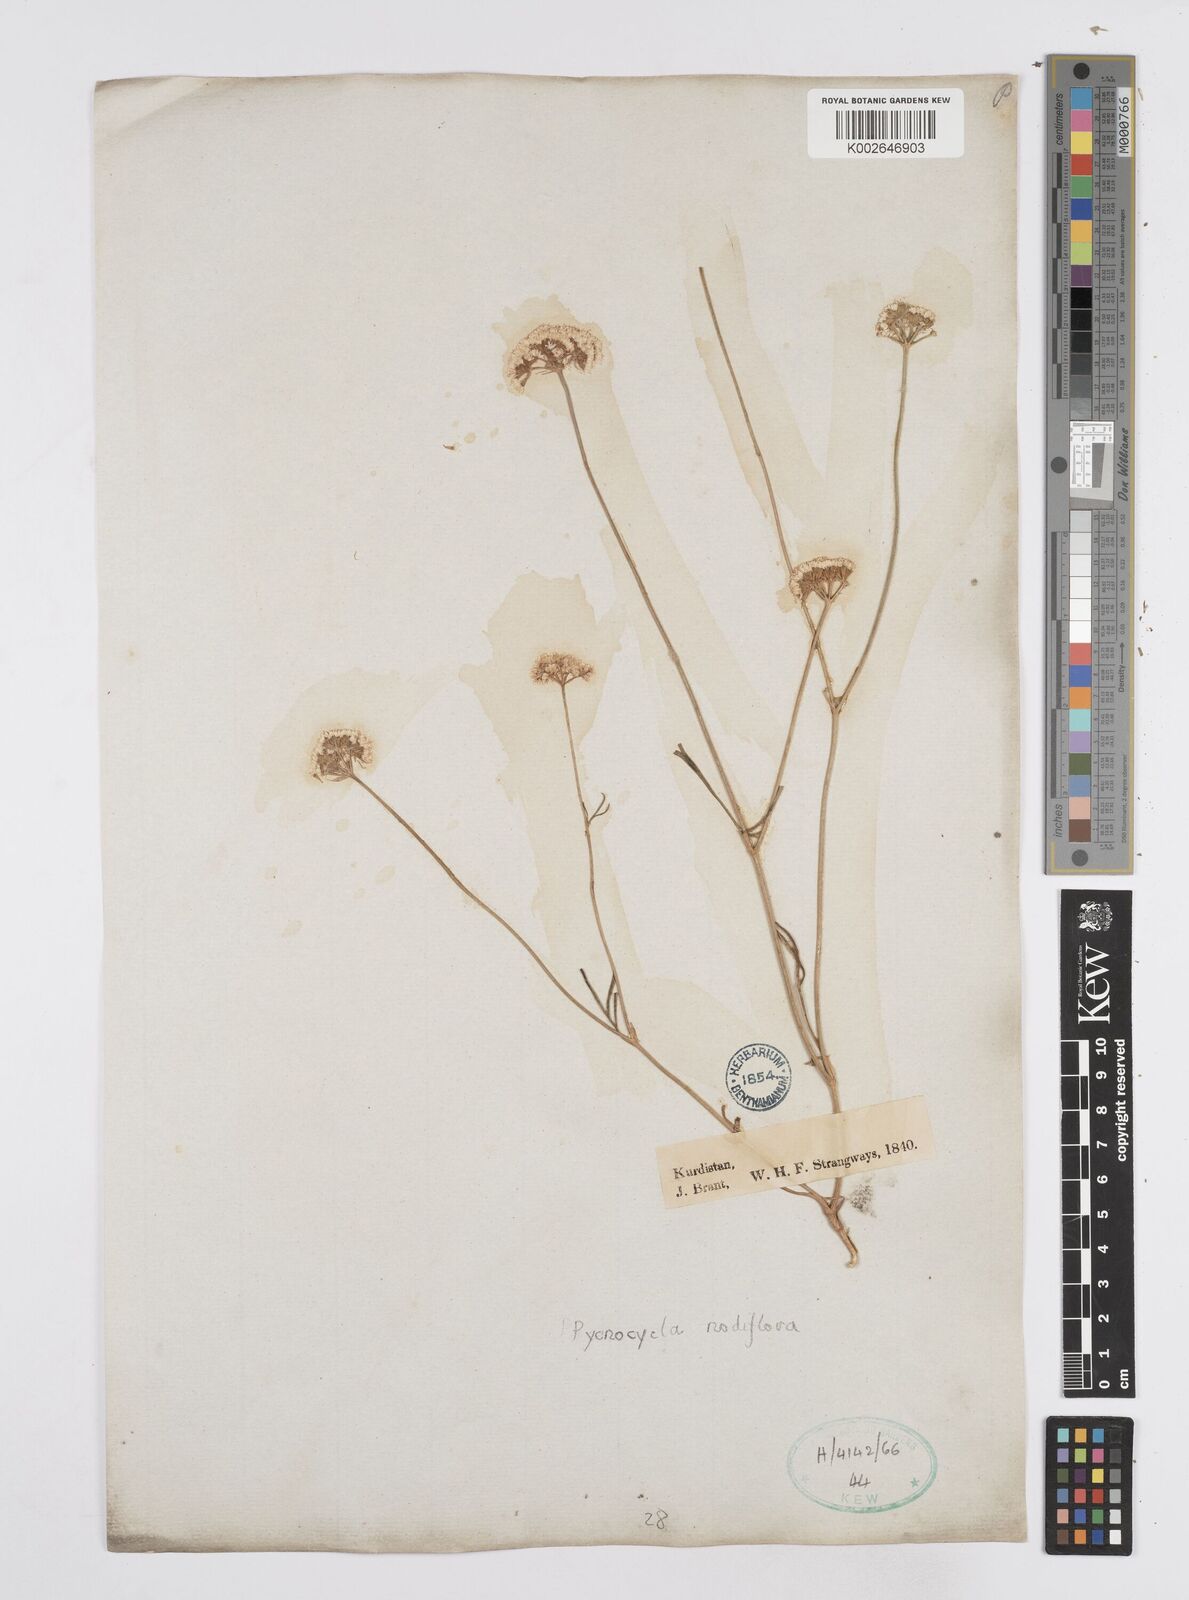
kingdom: Plantae
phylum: Tracheophyta
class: Magnoliopsida
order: Apiales
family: Apiaceae
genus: Pycnocycla
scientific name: Pycnocycla nodiflora
